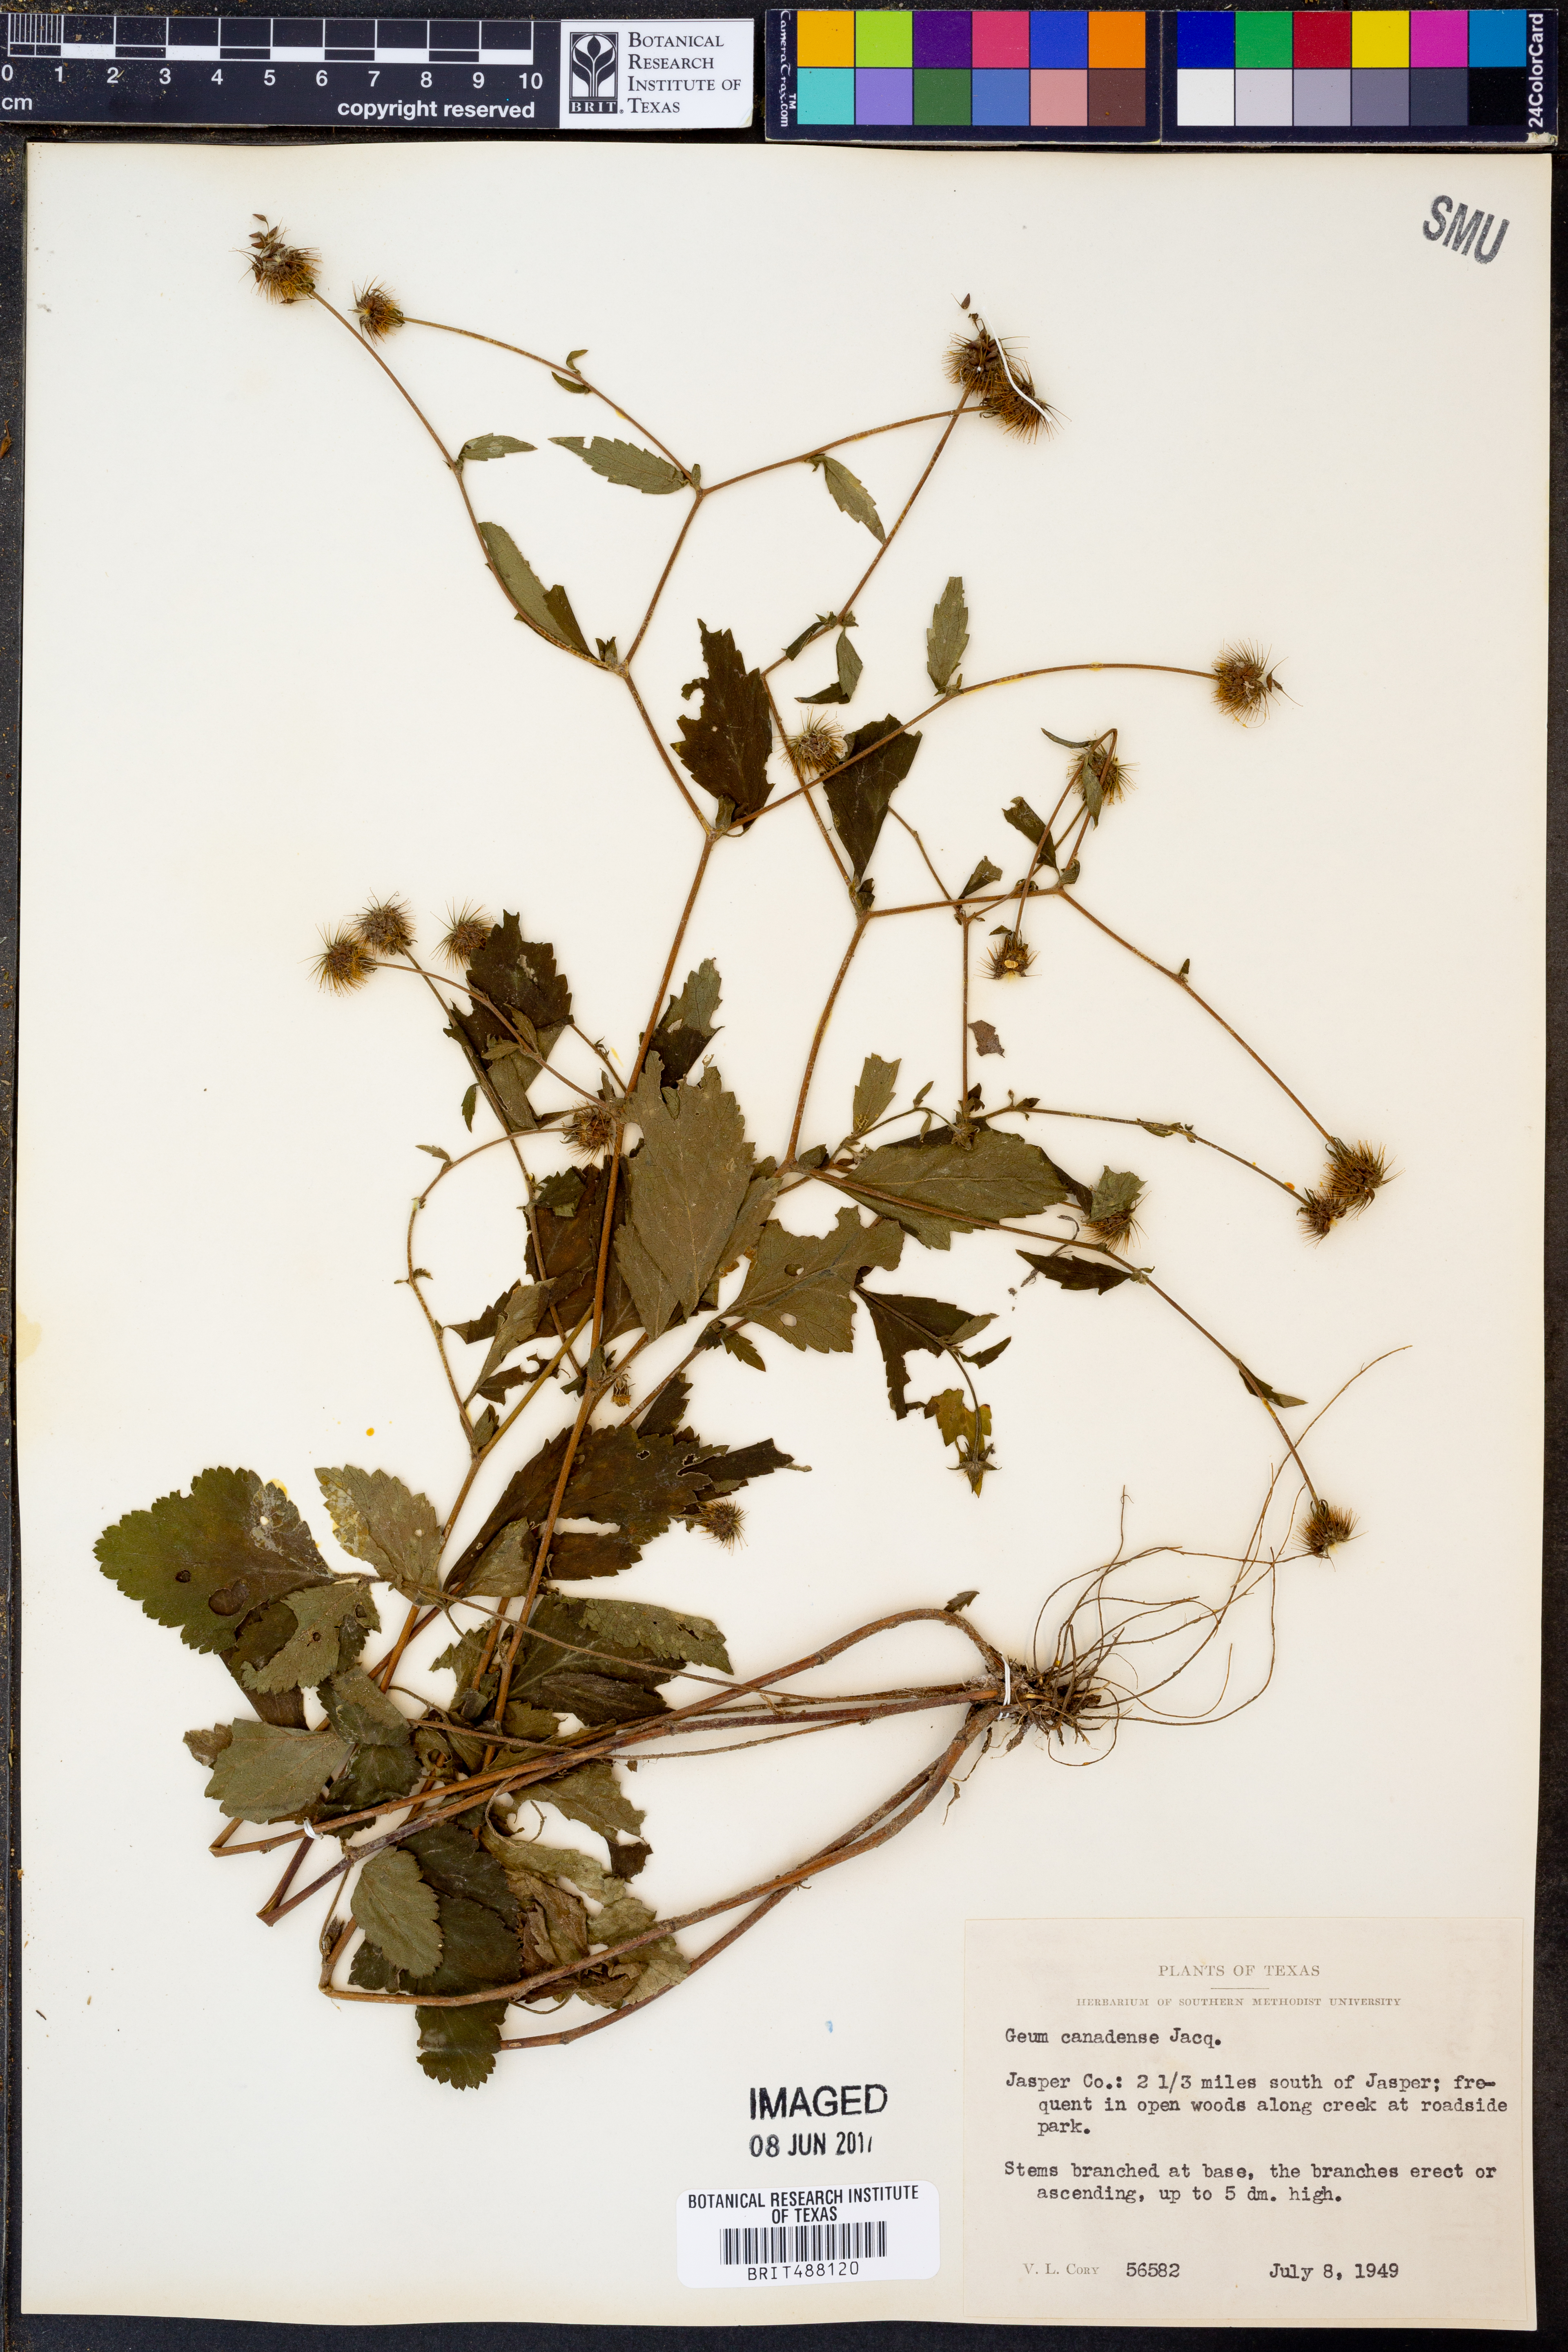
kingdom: Plantae
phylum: Tracheophyta
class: Magnoliopsida
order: Rosales
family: Rosaceae
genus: Geum
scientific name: Geum canadense
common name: White avens
